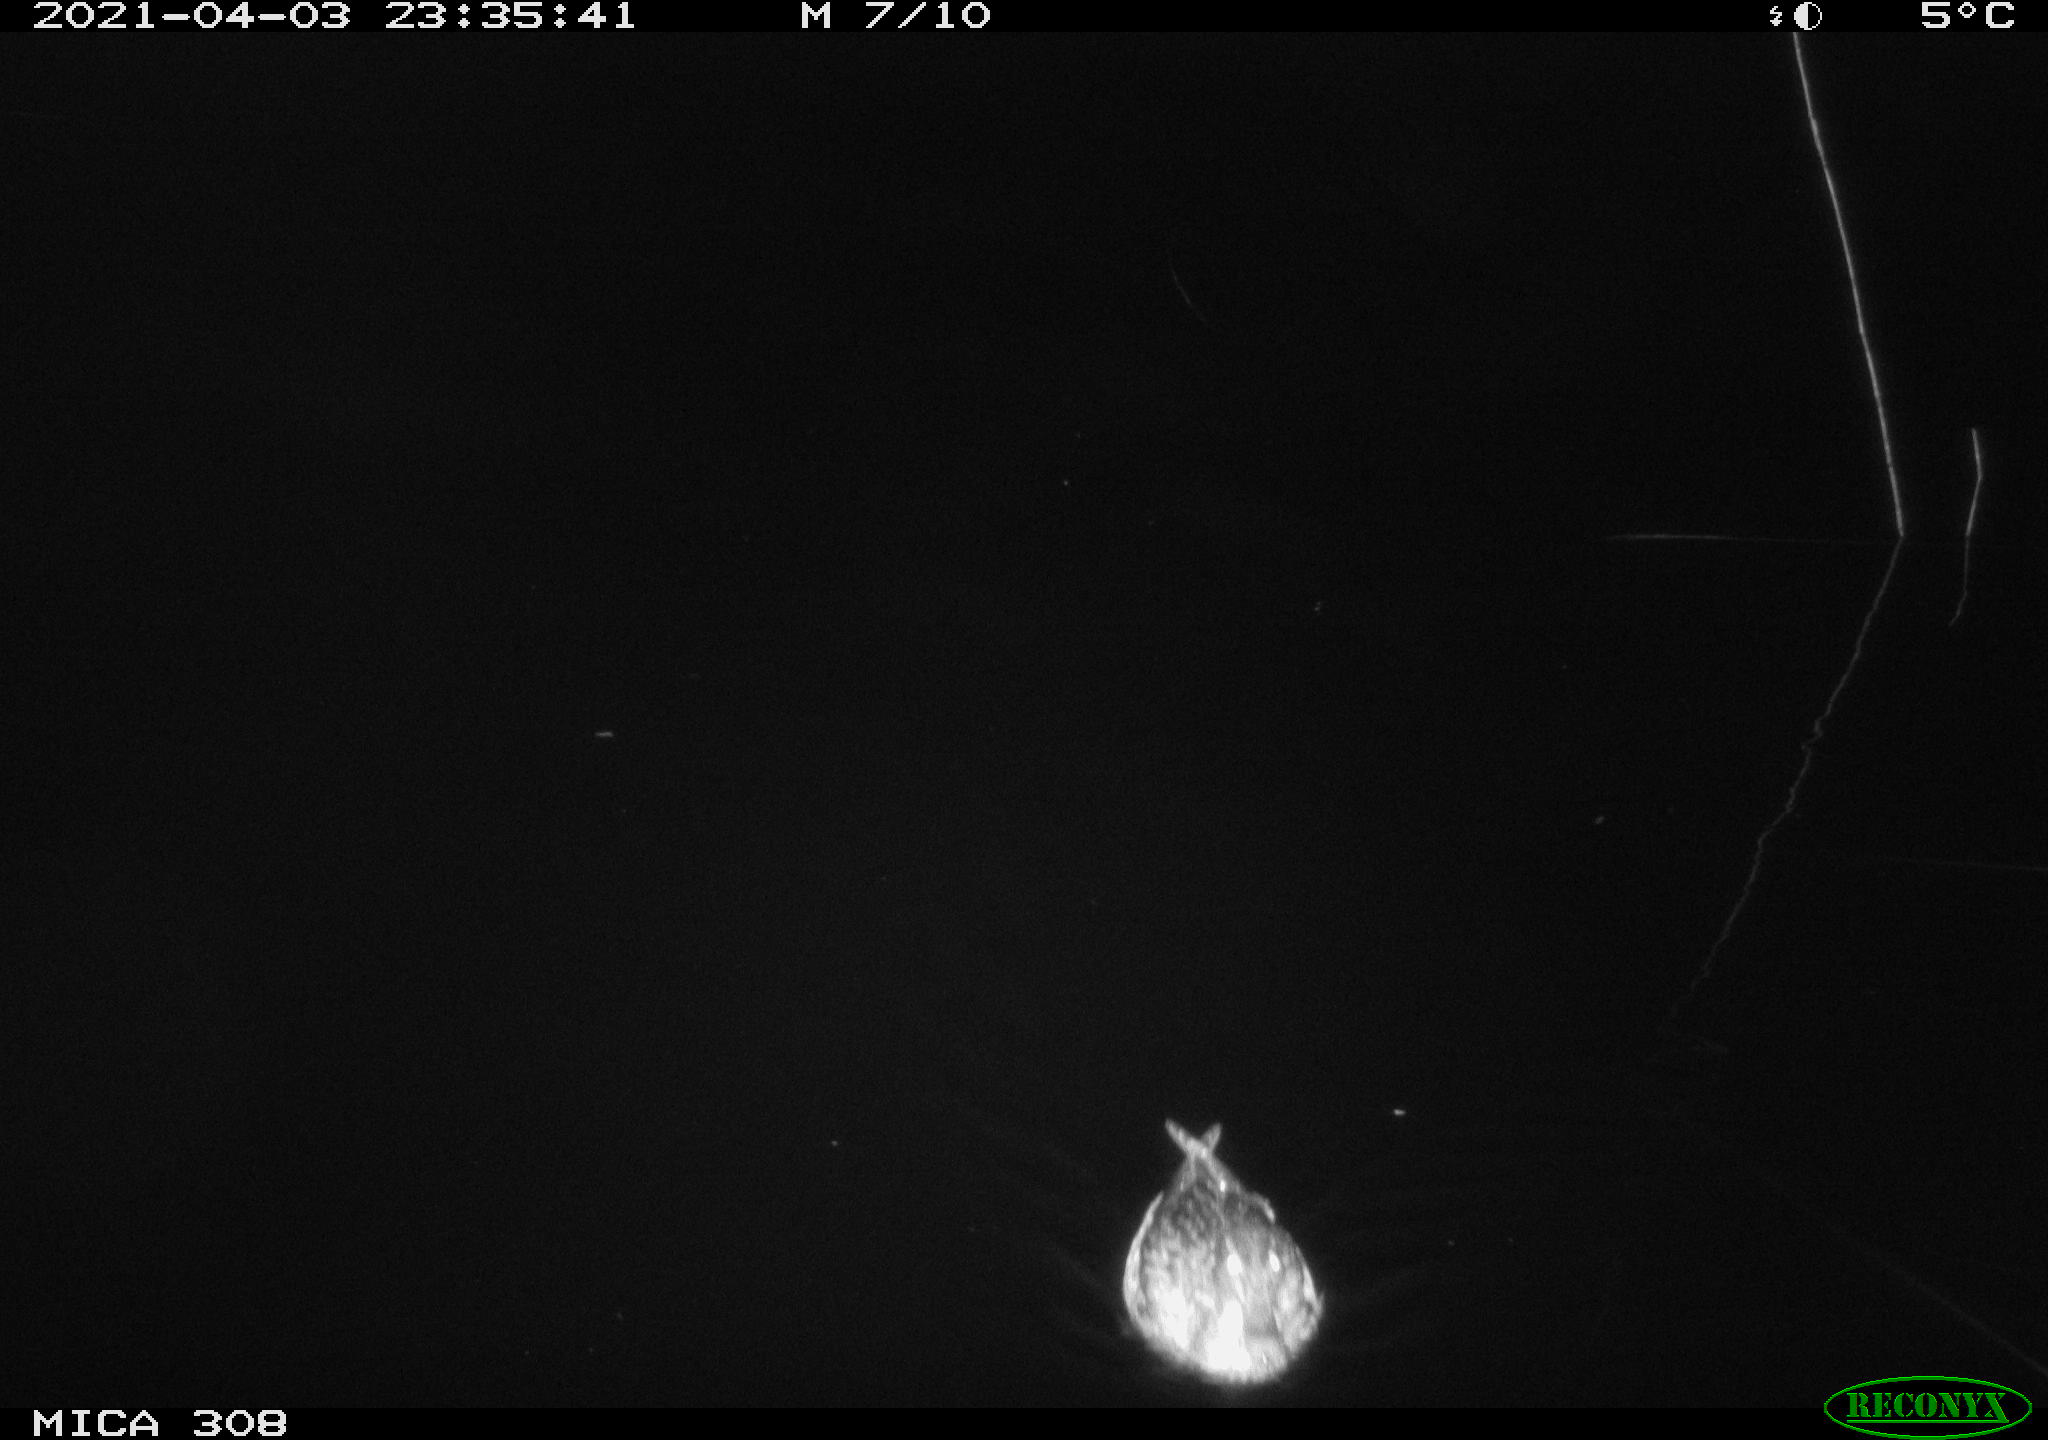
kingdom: Animalia
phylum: Chordata
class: Aves
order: Anseriformes
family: Anatidae
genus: Anas
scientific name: Anas platyrhynchos
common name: Mallard
